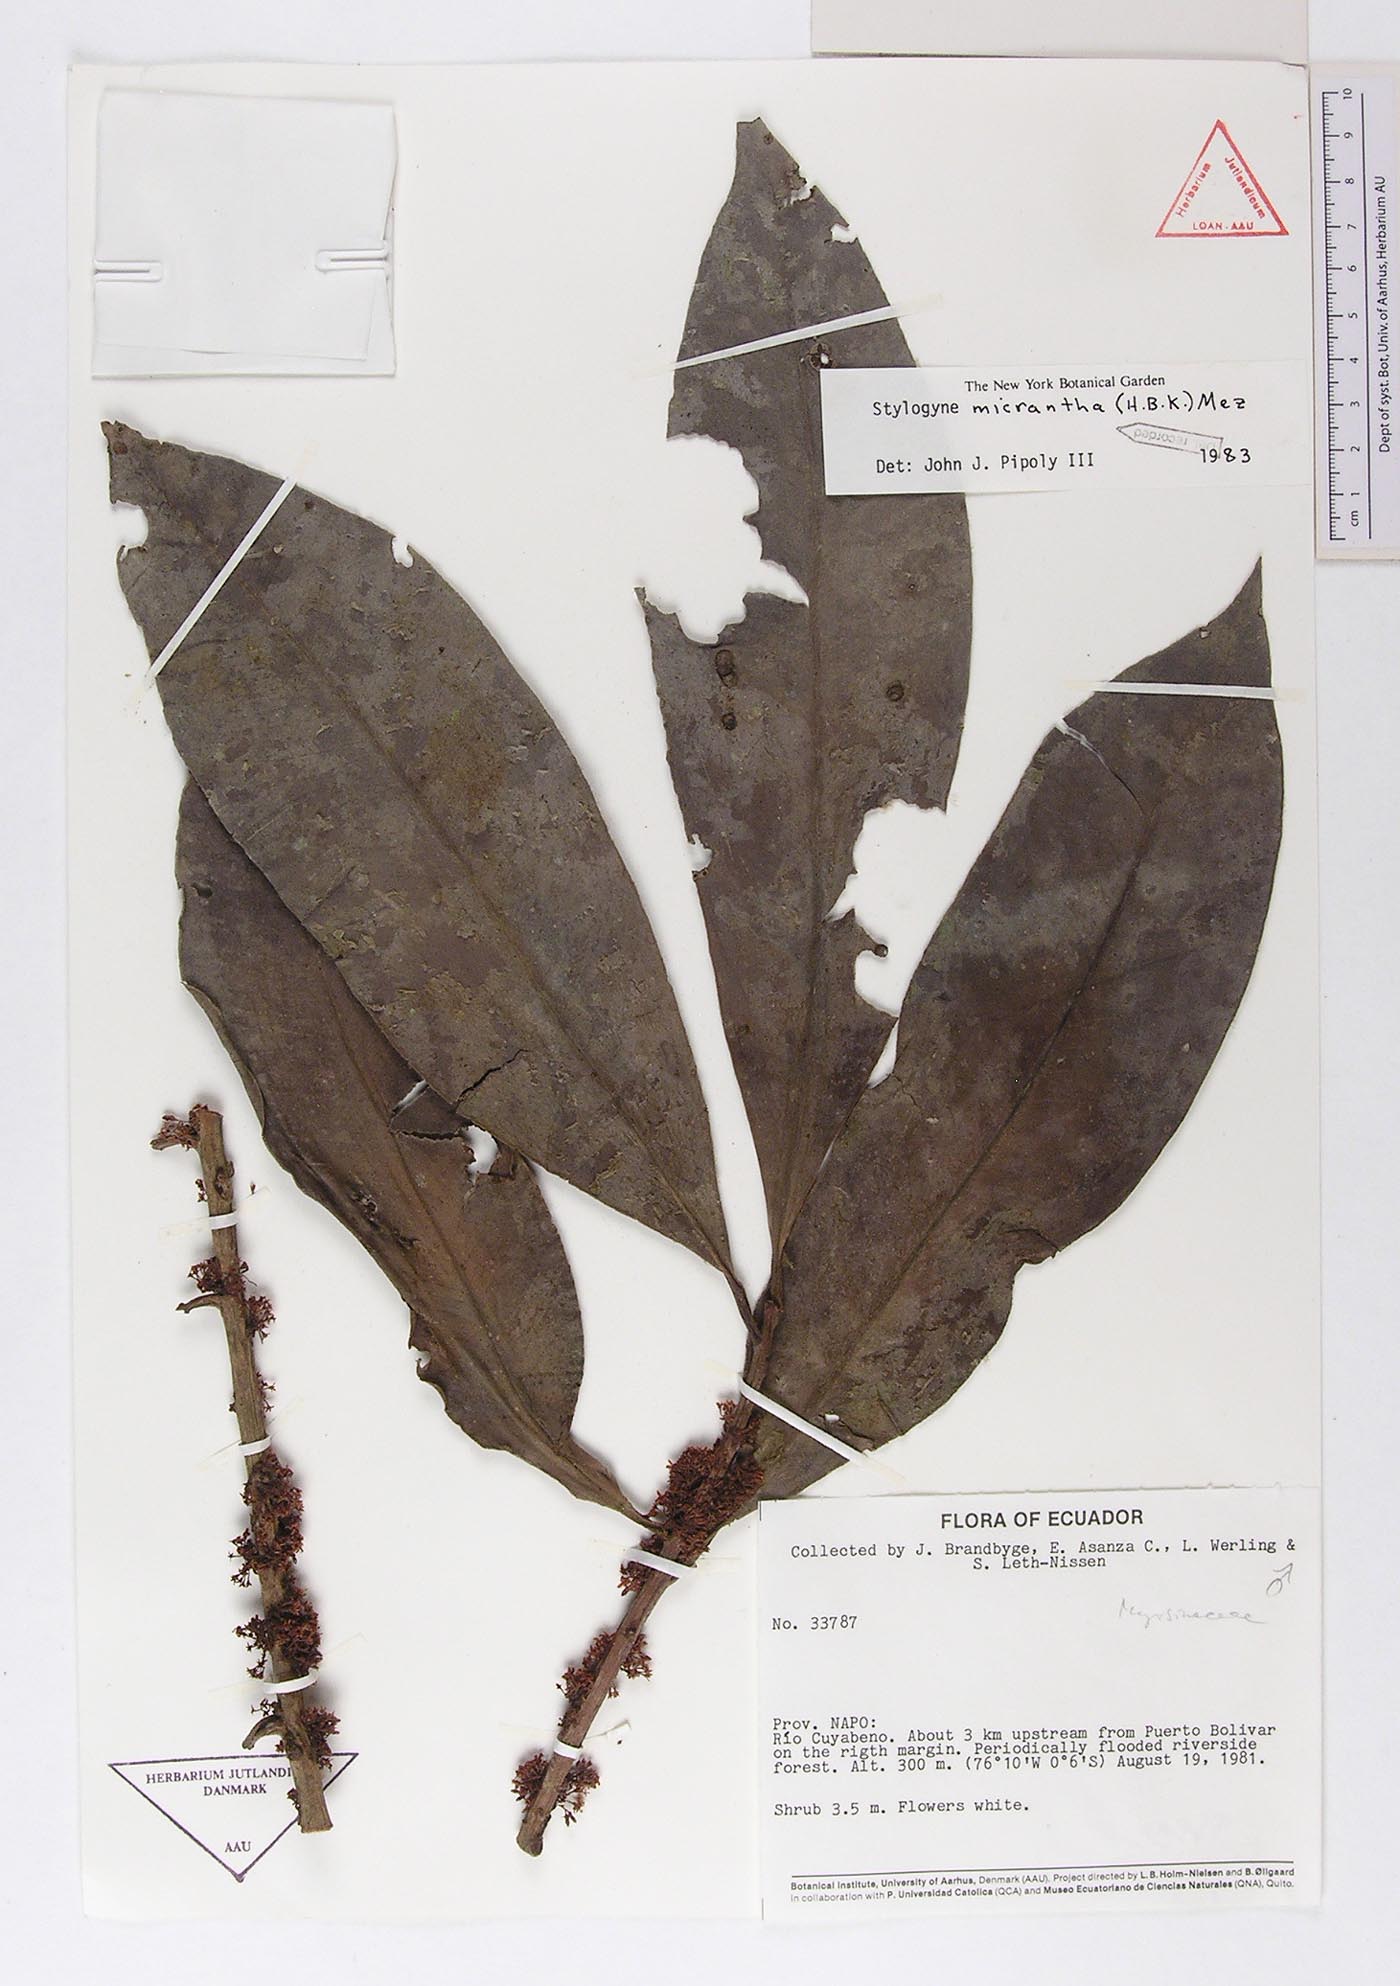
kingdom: Plantae
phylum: Tracheophyta
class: Magnoliopsida
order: Ericales
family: Primulaceae
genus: Stylogyne
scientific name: Stylogyne micrantha
